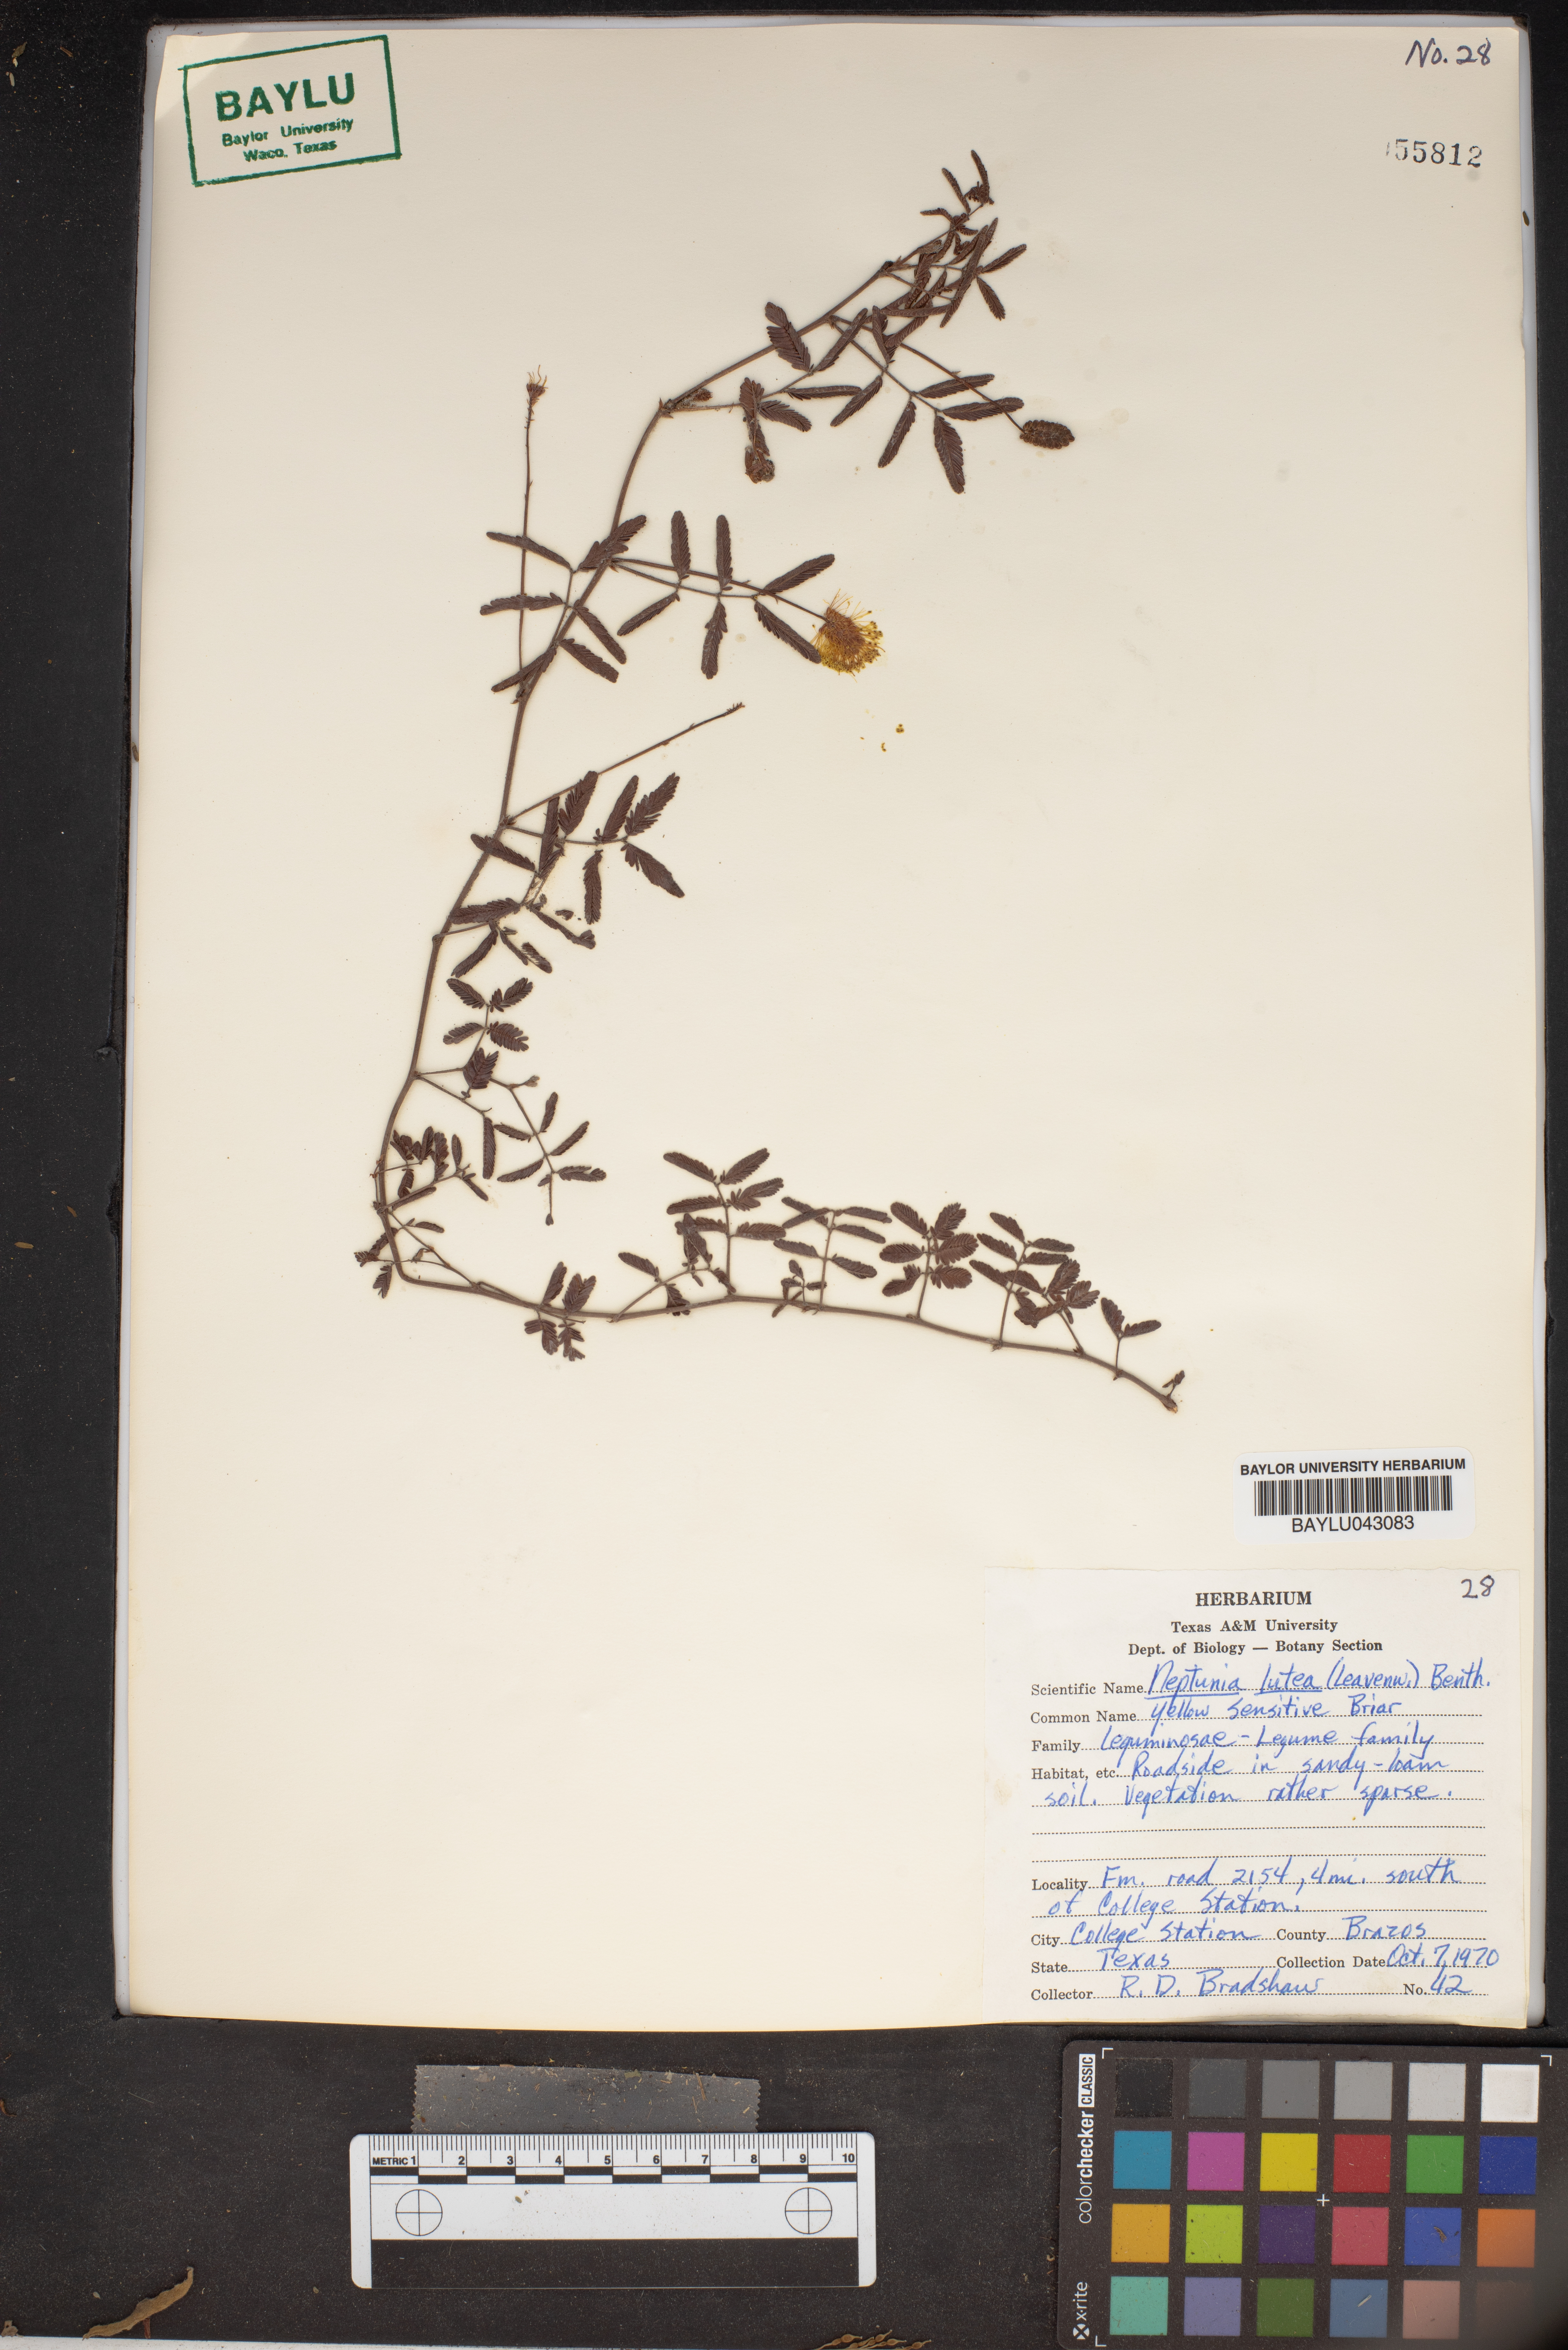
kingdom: Plantae
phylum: Tracheophyta
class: Magnoliopsida
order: Fabales
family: Fabaceae
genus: Neptunia
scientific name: Neptunia lutea
